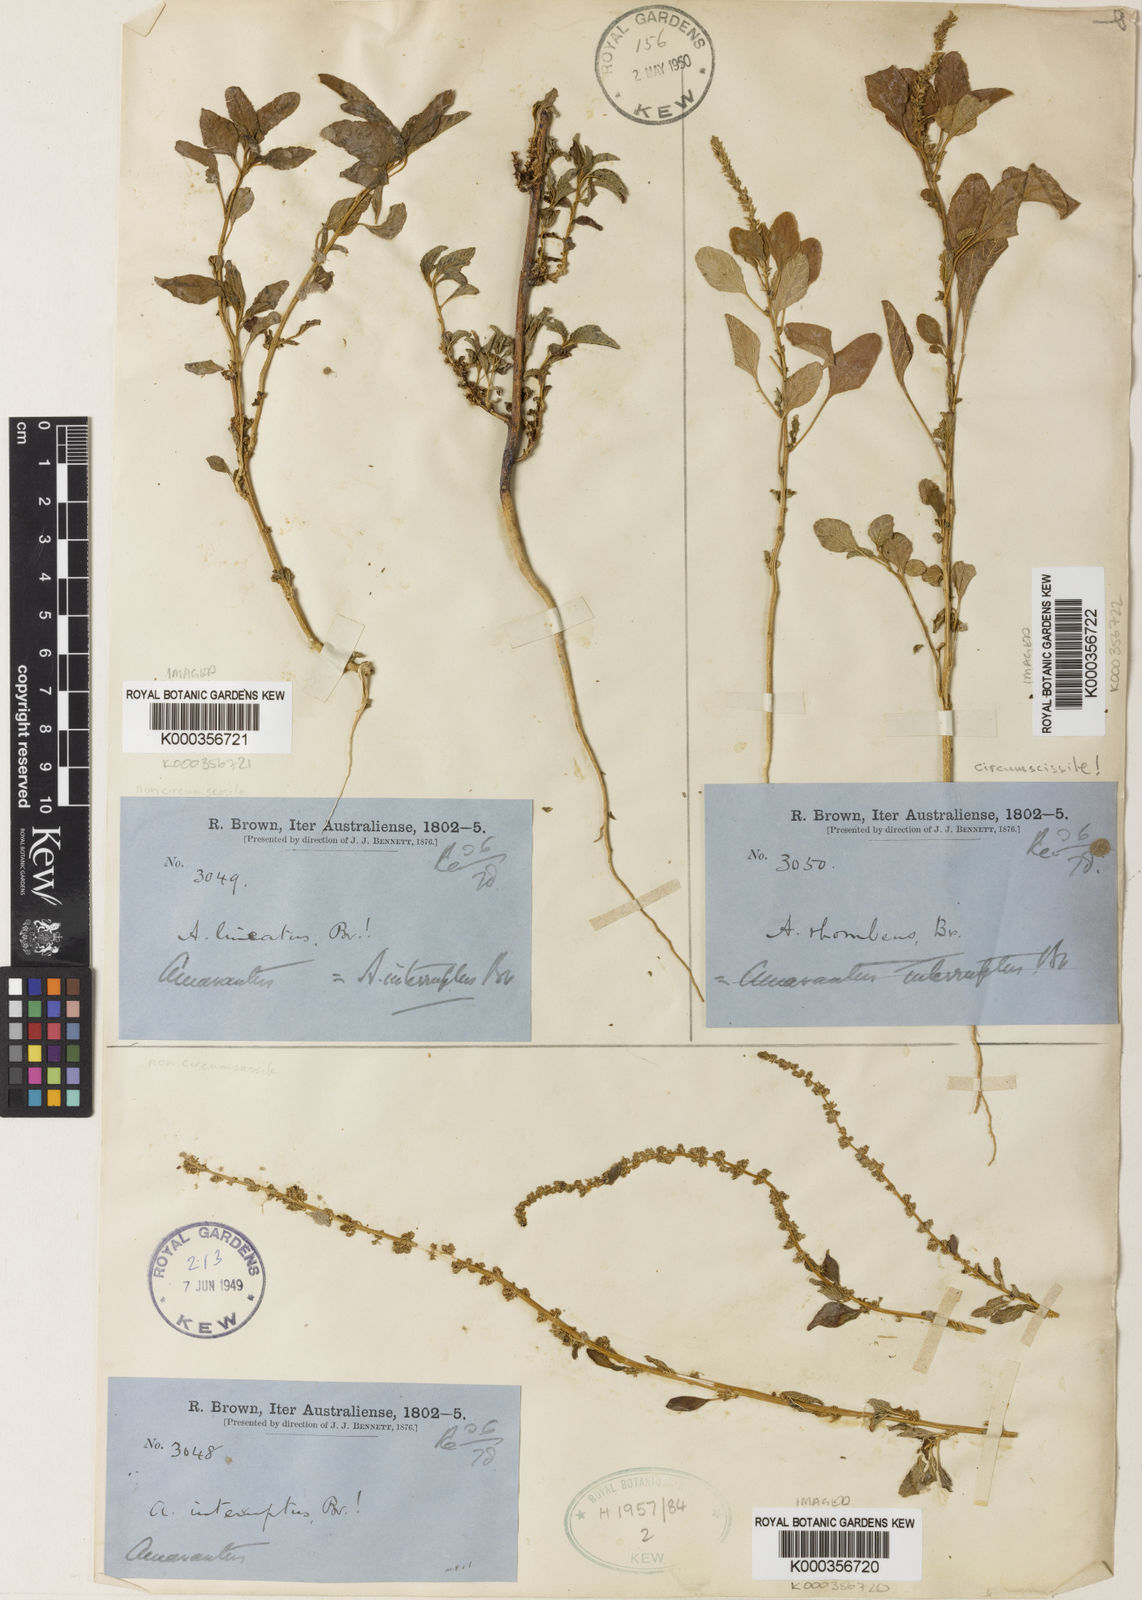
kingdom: Plantae
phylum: Tracheophyta
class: Magnoliopsida
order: Caryophyllales
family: Amaranthaceae
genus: Amaranthus
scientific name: Amaranthus interruptus
